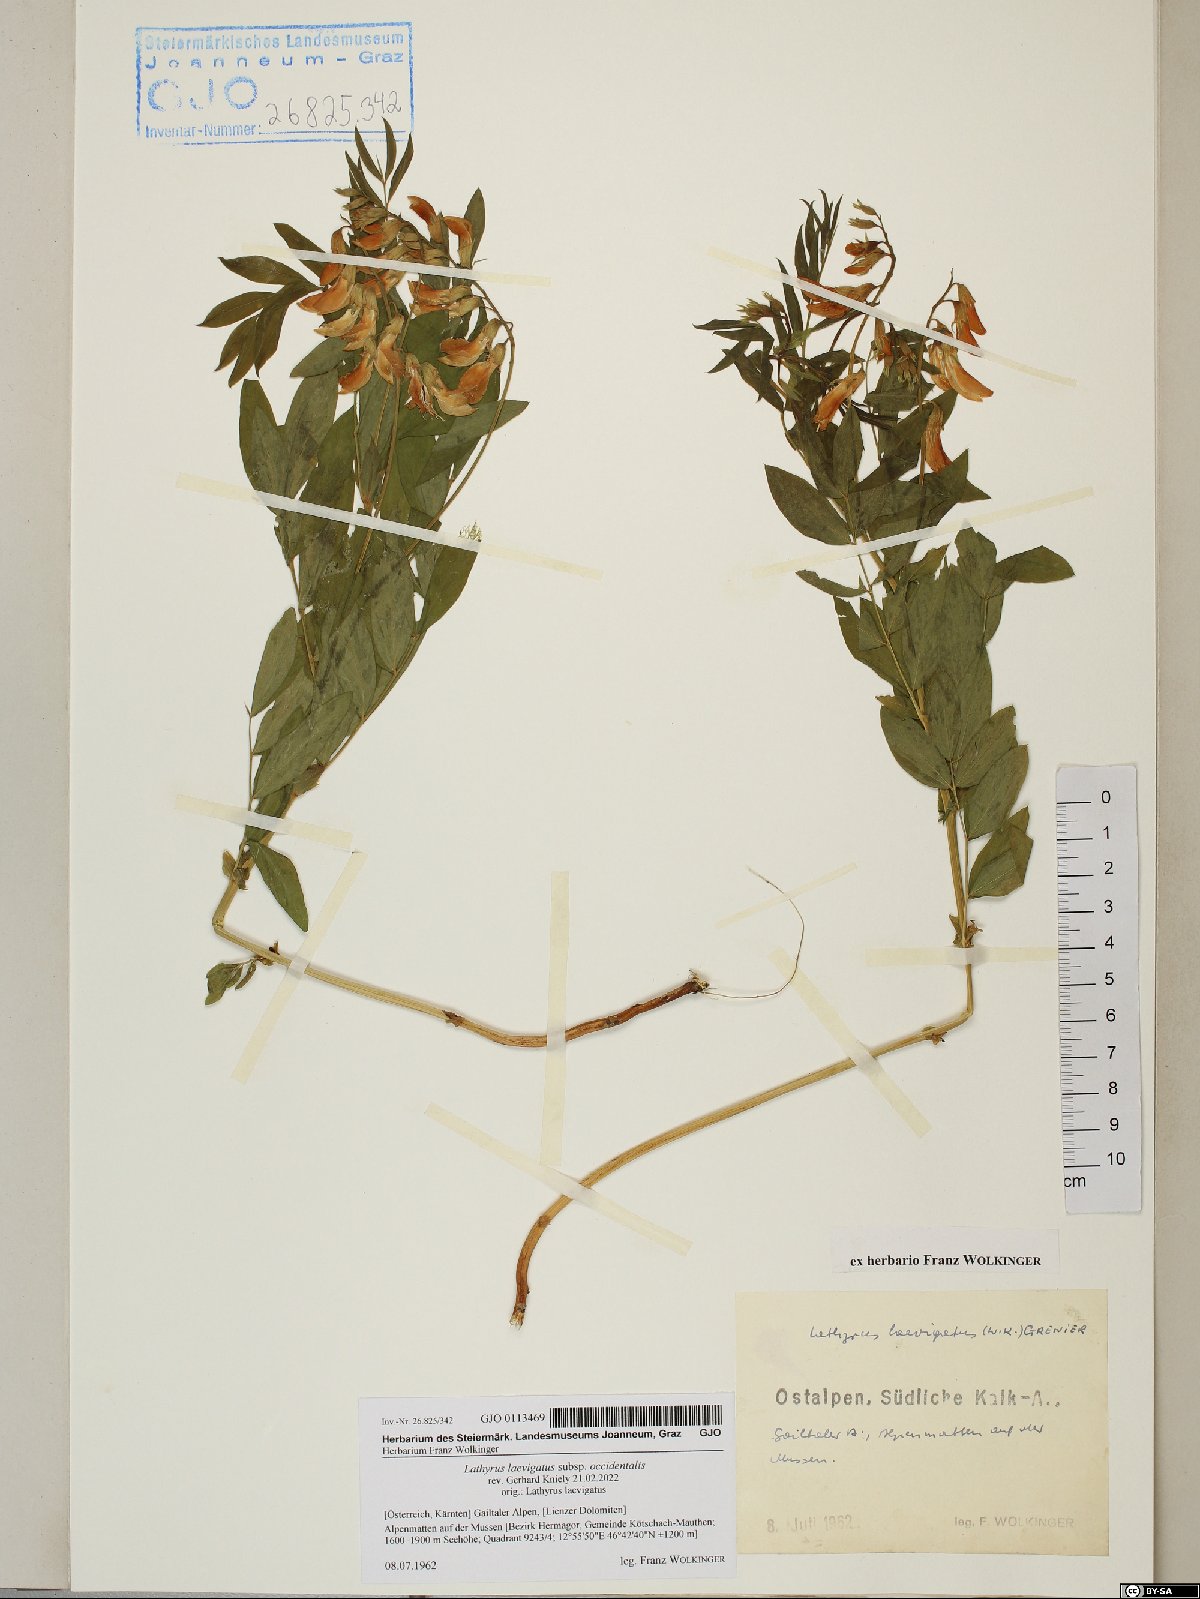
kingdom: Plantae
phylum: Tracheophyta
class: Magnoliopsida
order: Fabales
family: Fabaceae
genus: Lathyrus
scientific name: Lathyrus laevigatus
